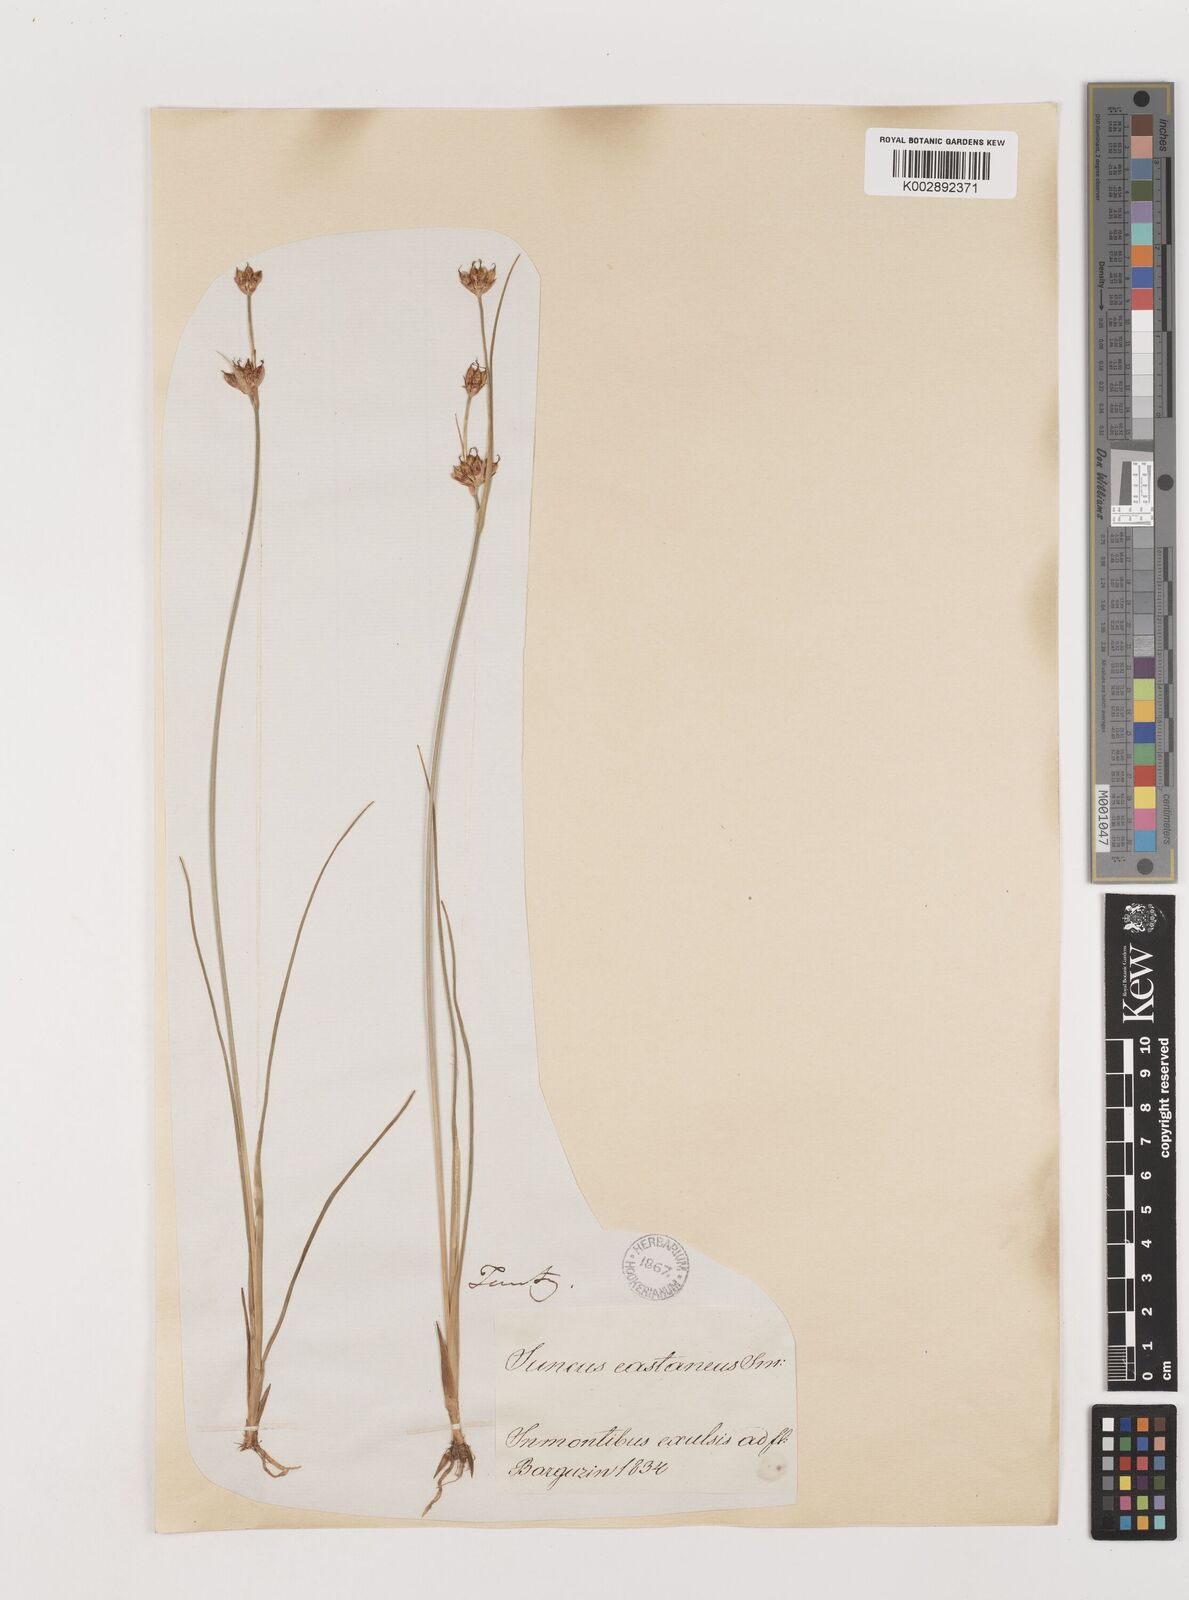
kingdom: Plantae
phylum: Tracheophyta
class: Liliopsida
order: Poales
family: Juncaceae
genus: Juncus
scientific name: Juncus castaneus
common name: Chestnut rush
